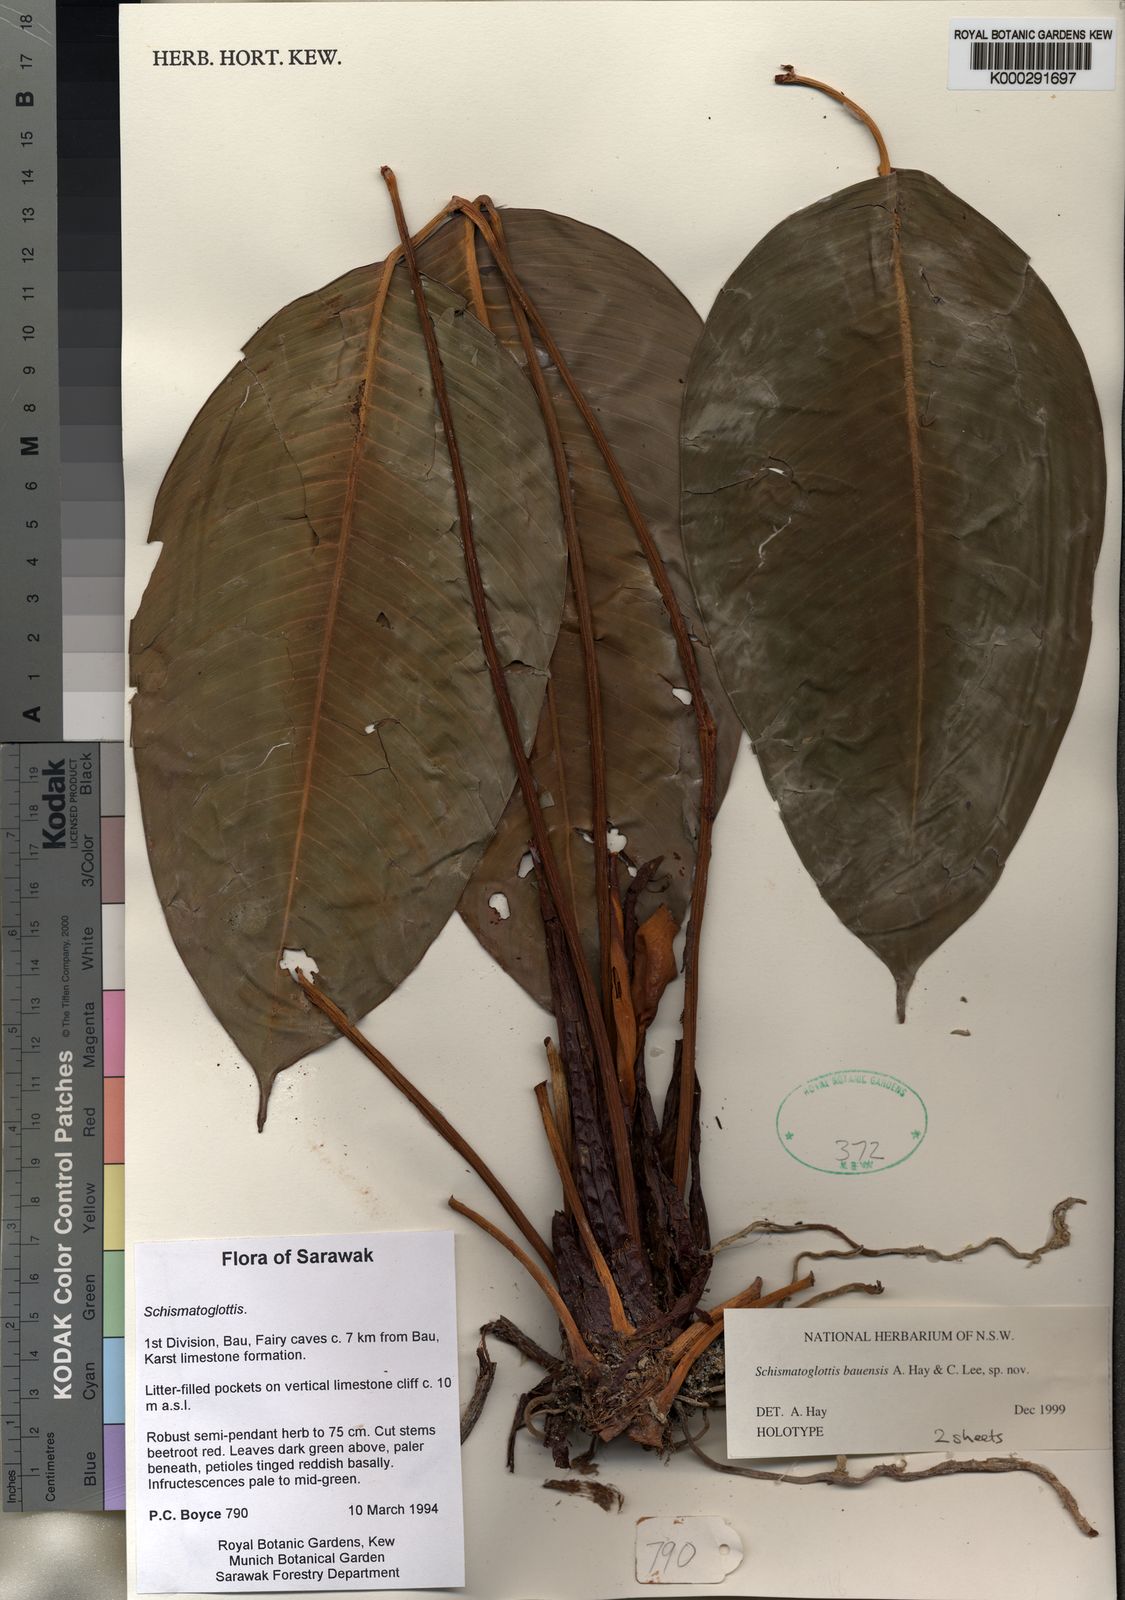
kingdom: Plantae
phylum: Tracheophyta
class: Liliopsida
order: Alismatales
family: Araceae
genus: Schismatoglottis
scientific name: Schismatoglottis bauensis
